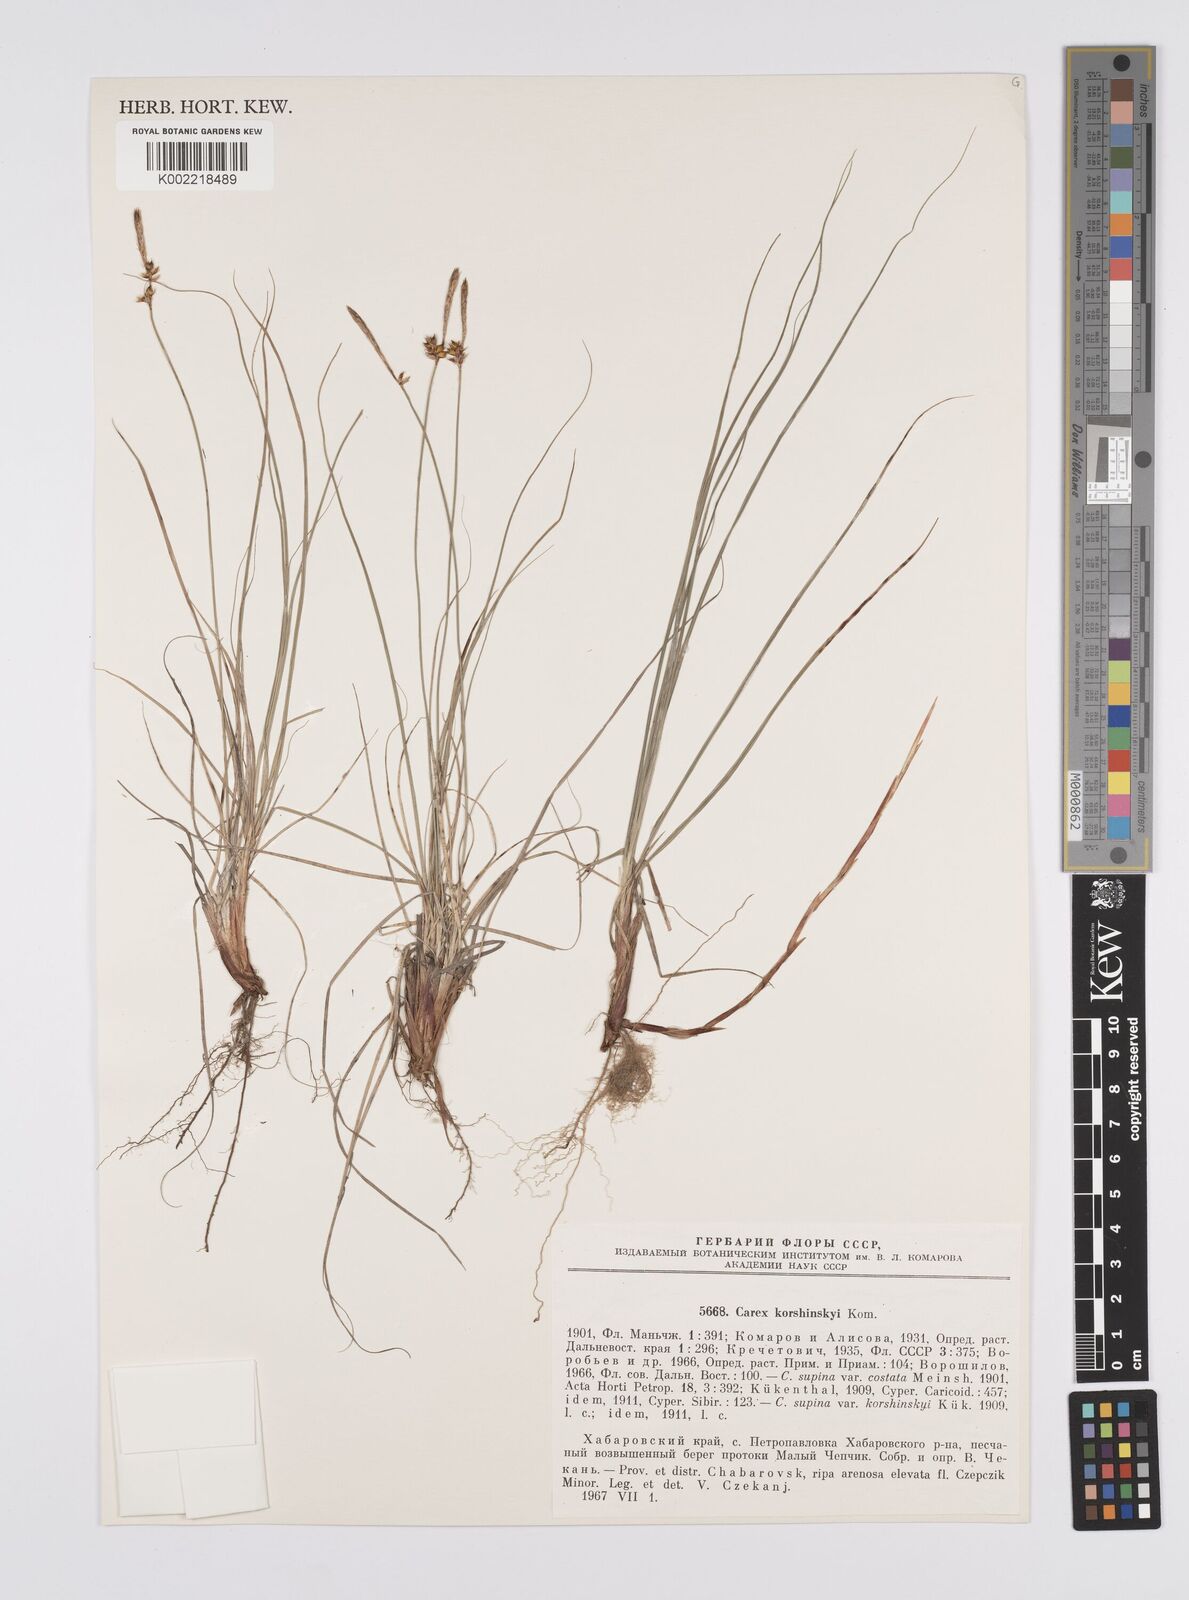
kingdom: Plantae
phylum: Tracheophyta
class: Liliopsida
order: Poales
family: Cyperaceae
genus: Carex
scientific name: Carex supina
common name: Lying-back sedge
